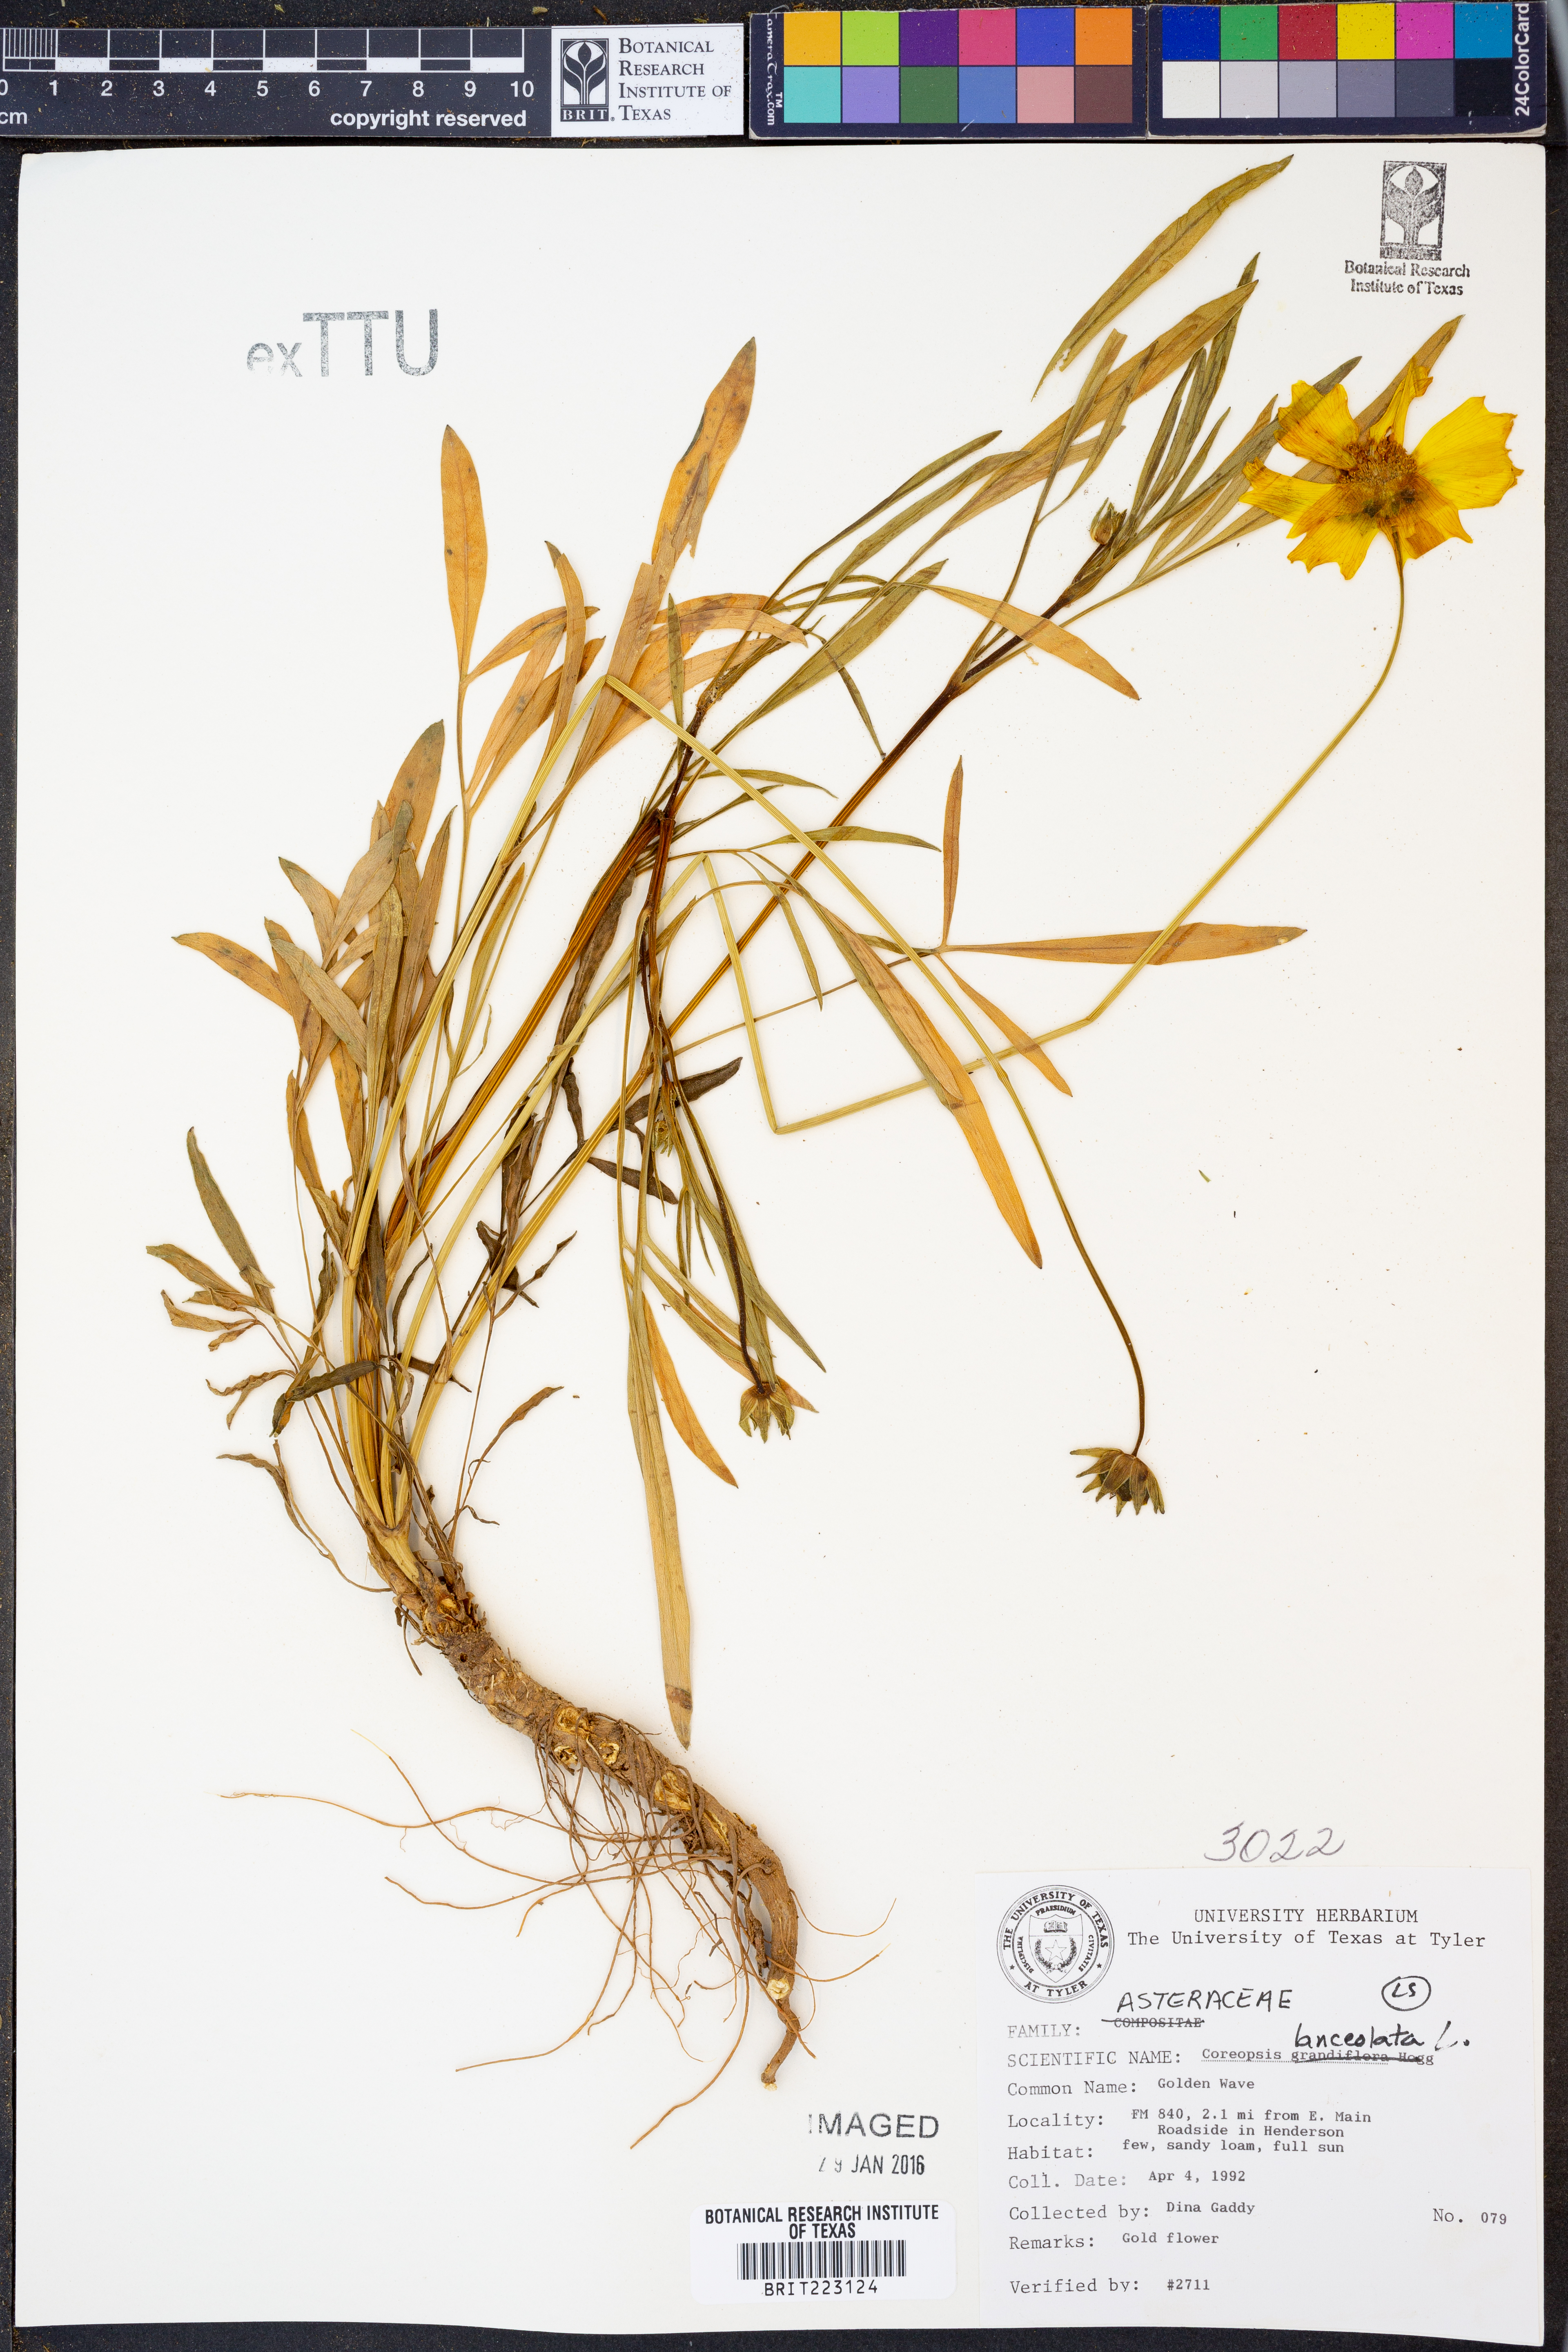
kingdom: Plantae
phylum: Tracheophyta
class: Magnoliopsida
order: Asterales
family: Asteraceae
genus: Coreopsis
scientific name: Coreopsis lanceolata
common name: Garden coreopsis
